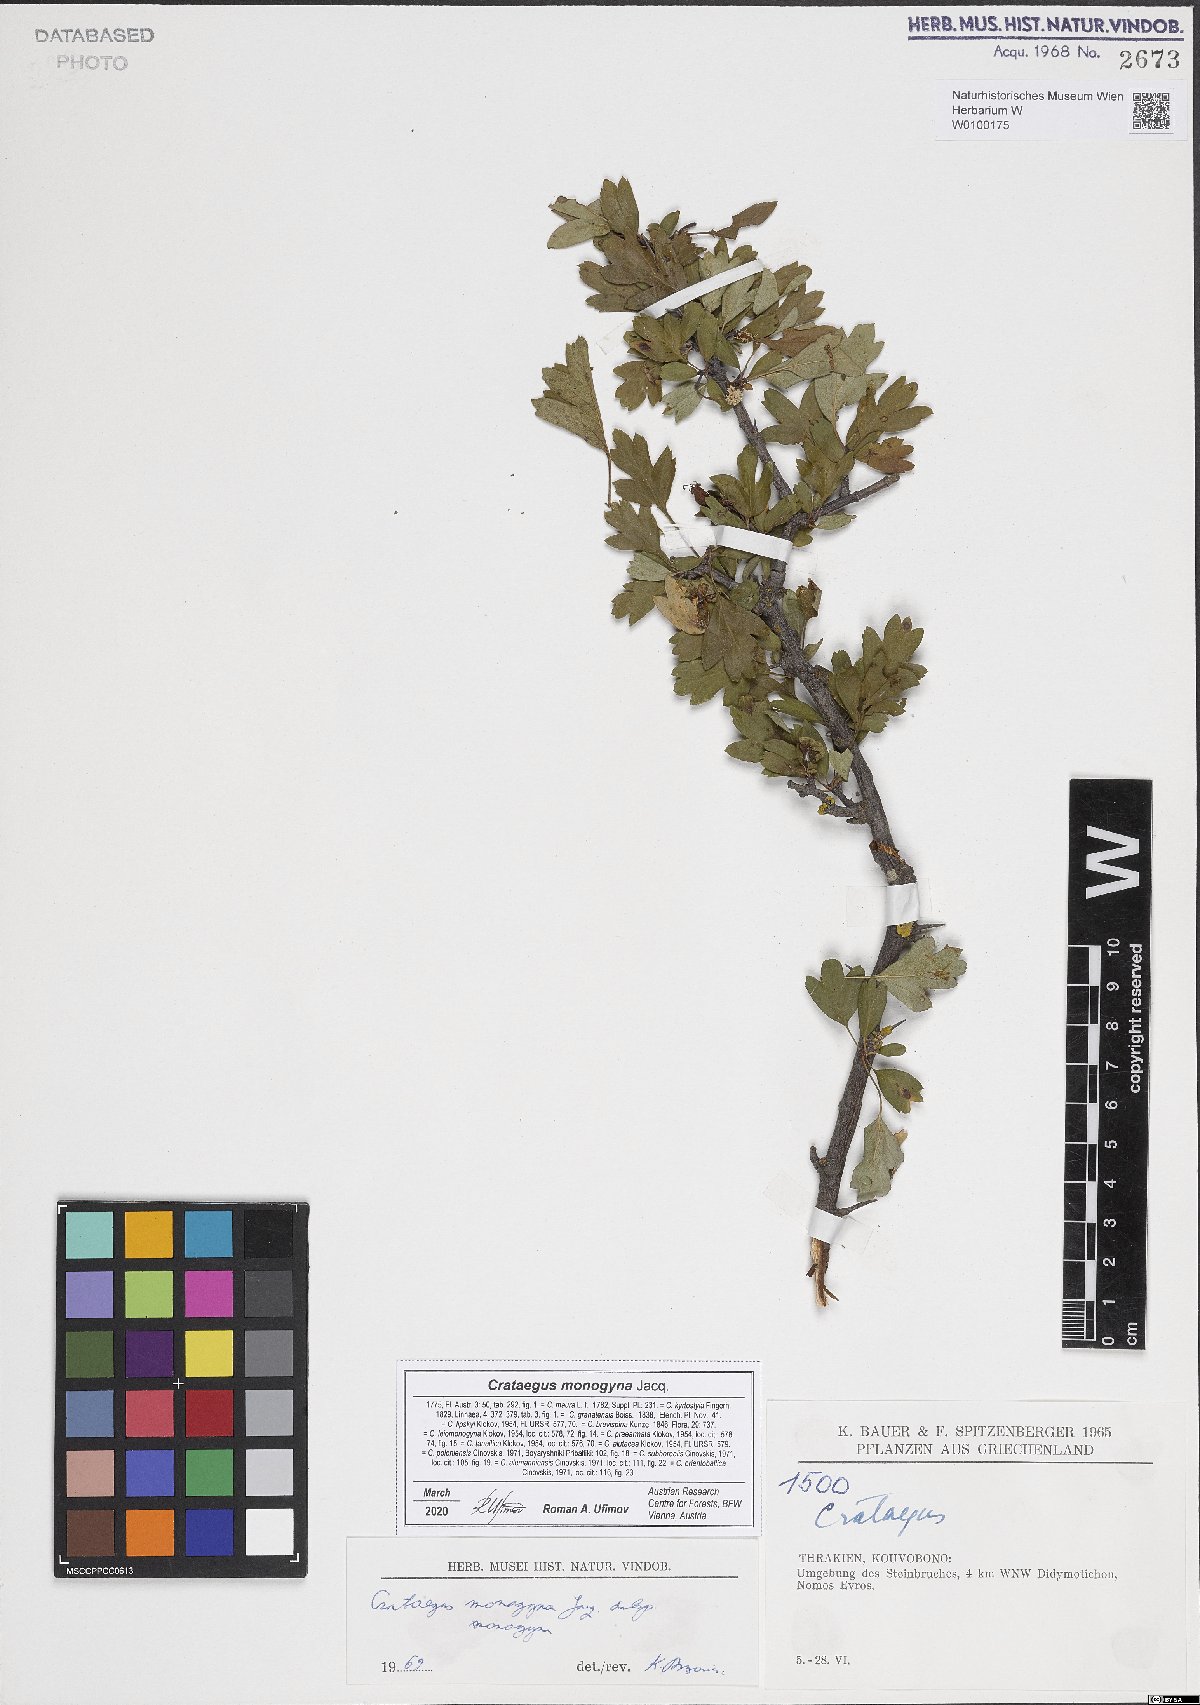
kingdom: Plantae
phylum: Tracheophyta
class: Magnoliopsida
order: Rosales
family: Rosaceae
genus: Crataegus
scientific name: Crataegus monogyna
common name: Hawthorn
